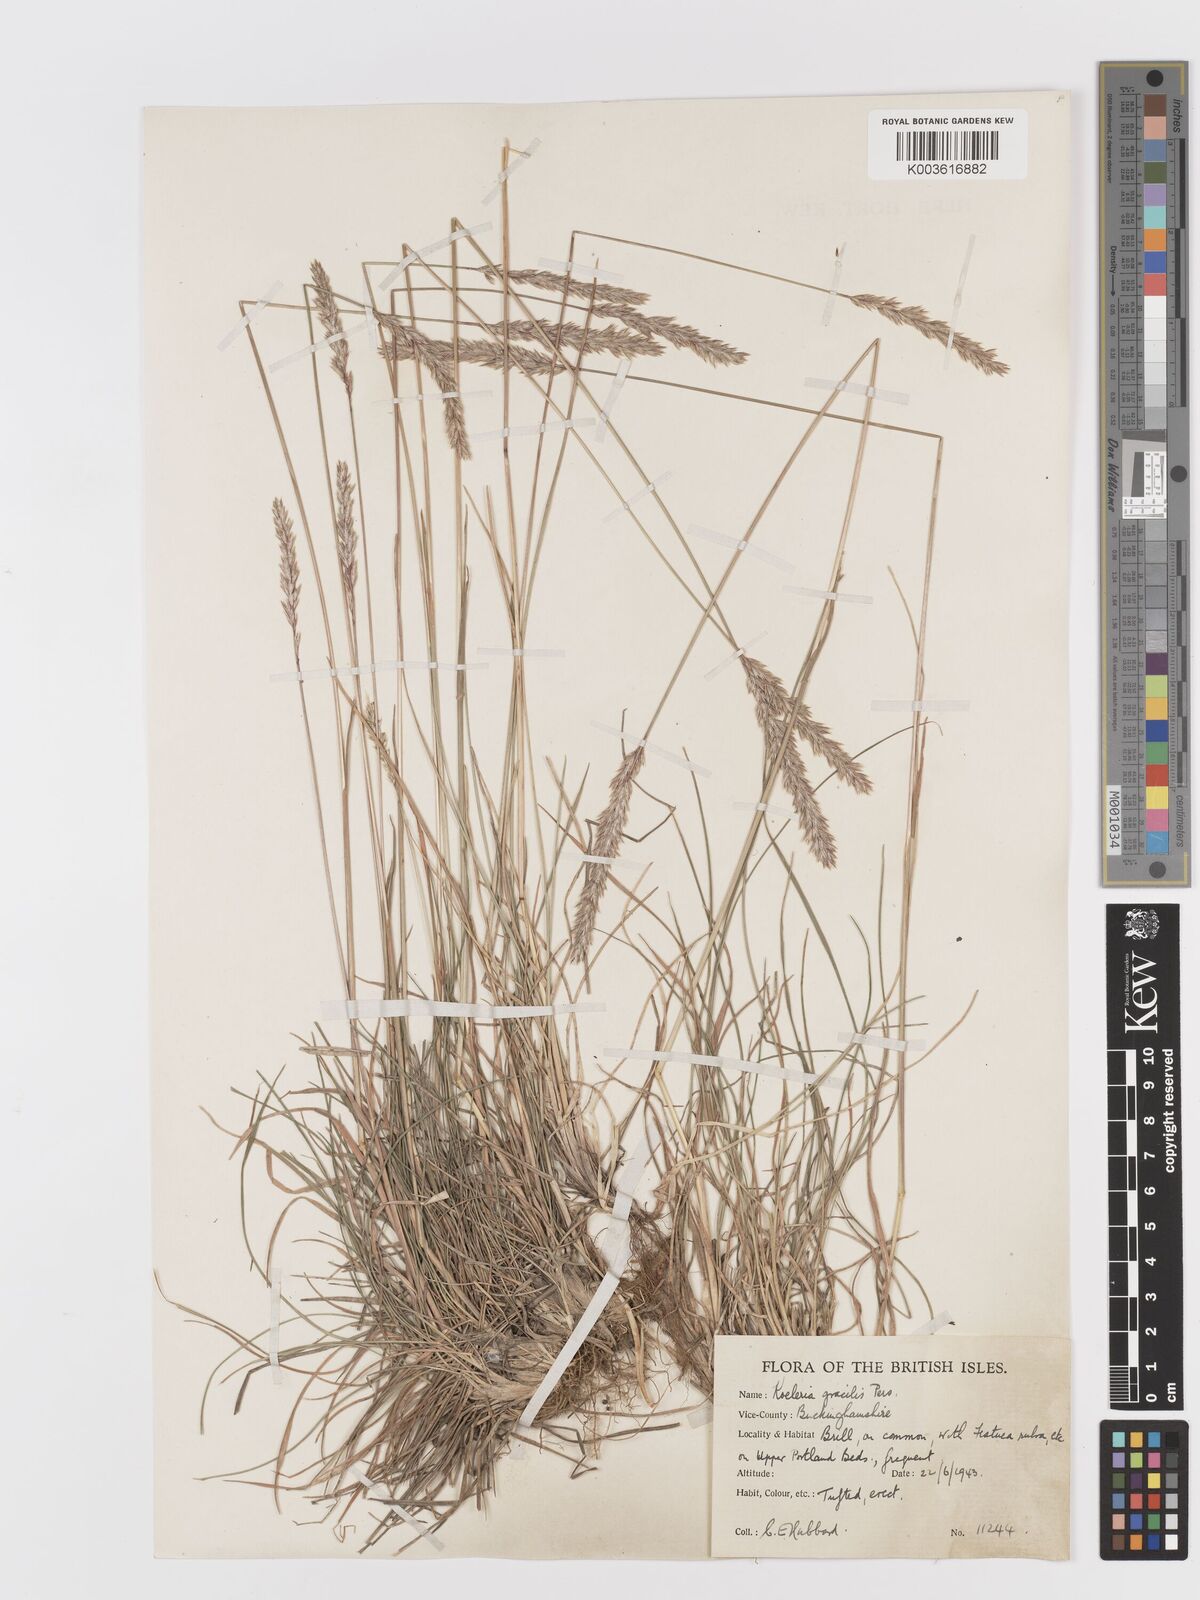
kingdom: Plantae
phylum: Tracheophyta
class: Liliopsida
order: Poales
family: Poaceae
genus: Koeleria
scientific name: Koeleria macrantha
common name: Crested hair-grass
